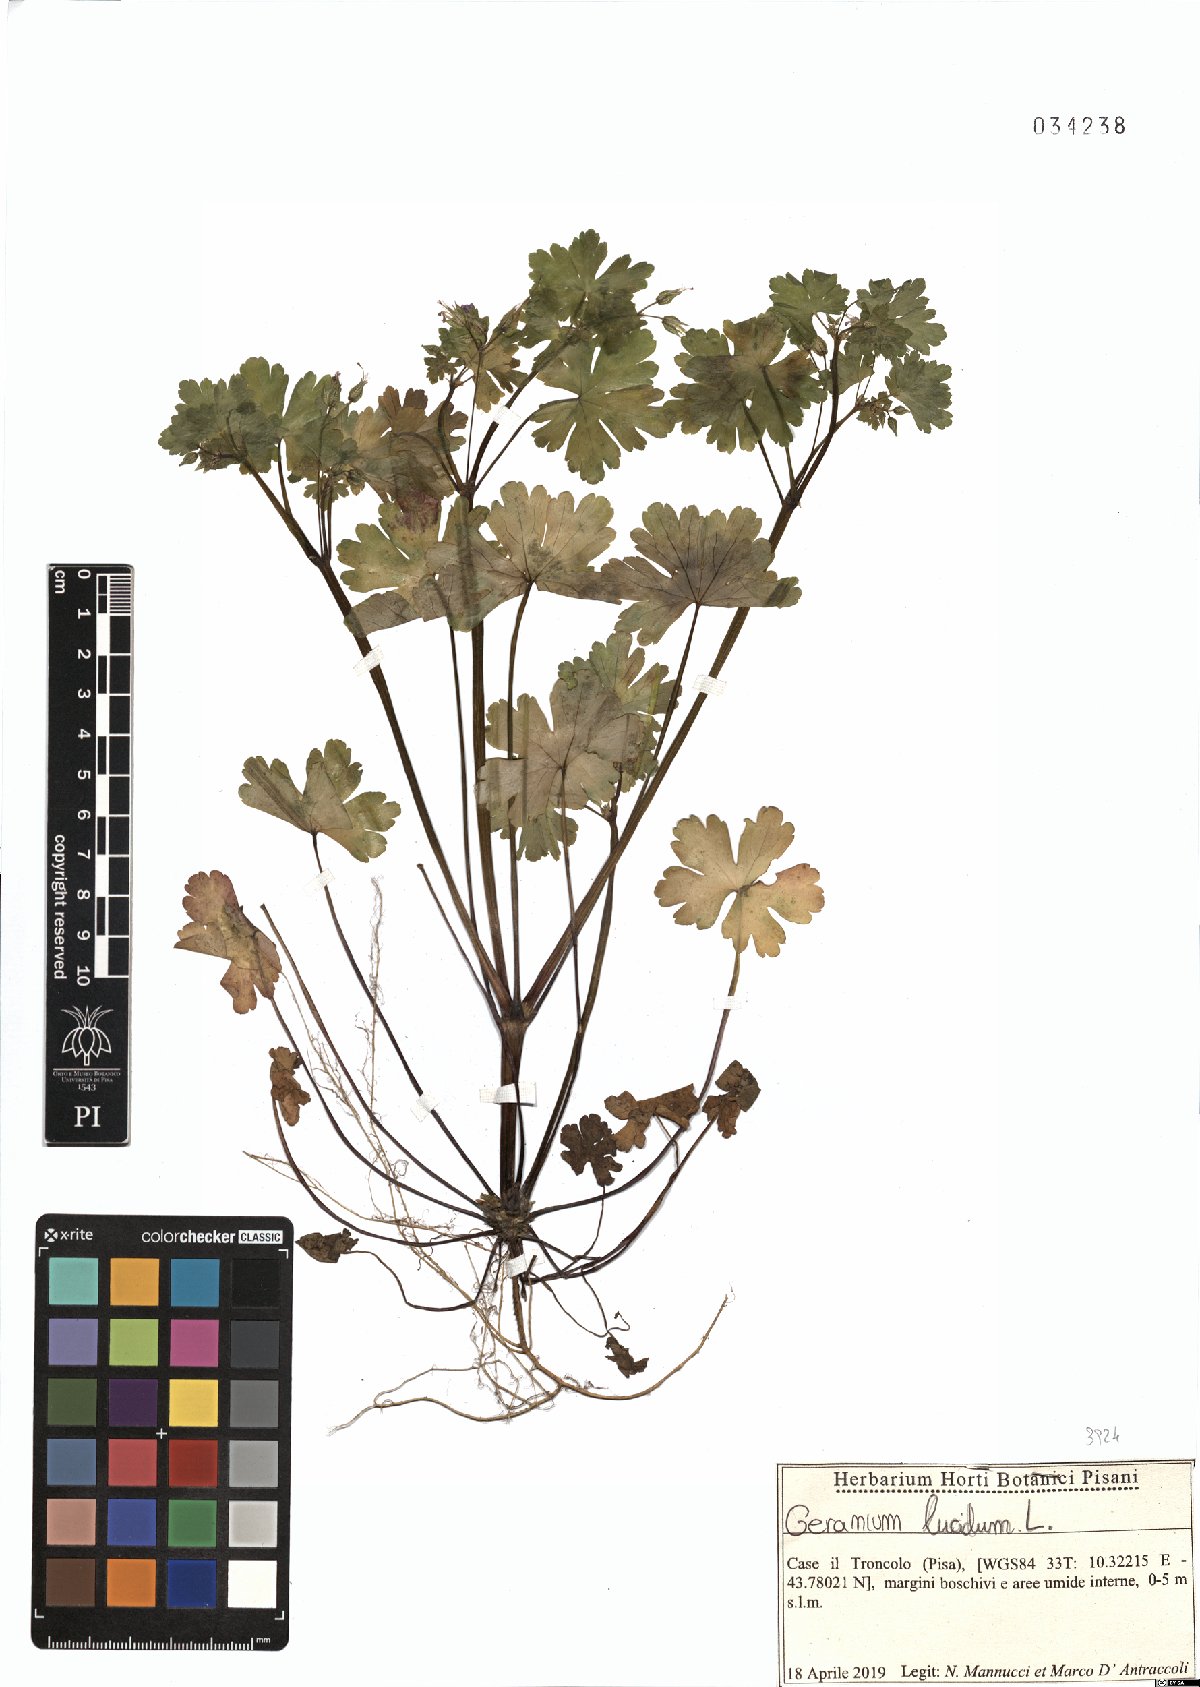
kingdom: Plantae
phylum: Tracheophyta
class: Magnoliopsida
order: Geraniales
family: Geraniaceae
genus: Geranium
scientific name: Geranium lucidum
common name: Shining crane's-bill
